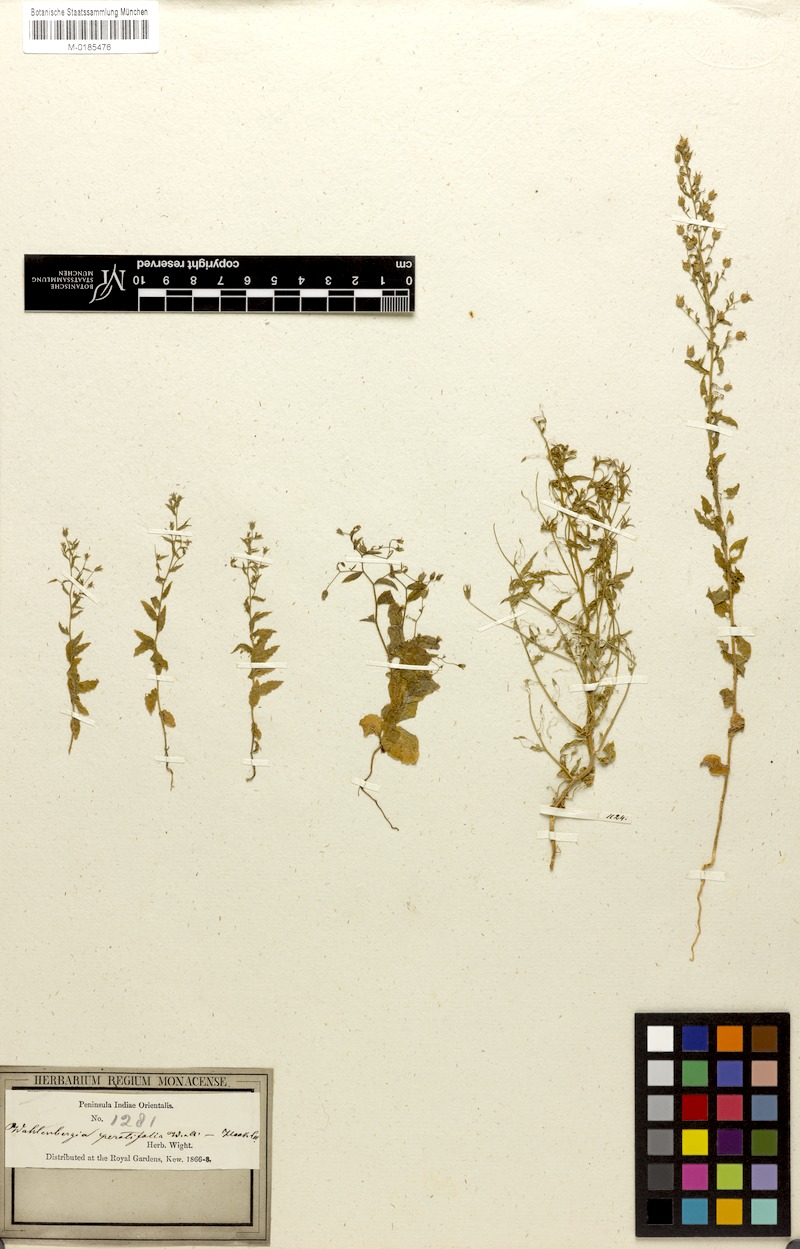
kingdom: Plantae
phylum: Tracheophyta
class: Magnoliopsida
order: Asterales
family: Campanulaceae
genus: Wahlenbergia
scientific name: Wahlenbergia erecta
